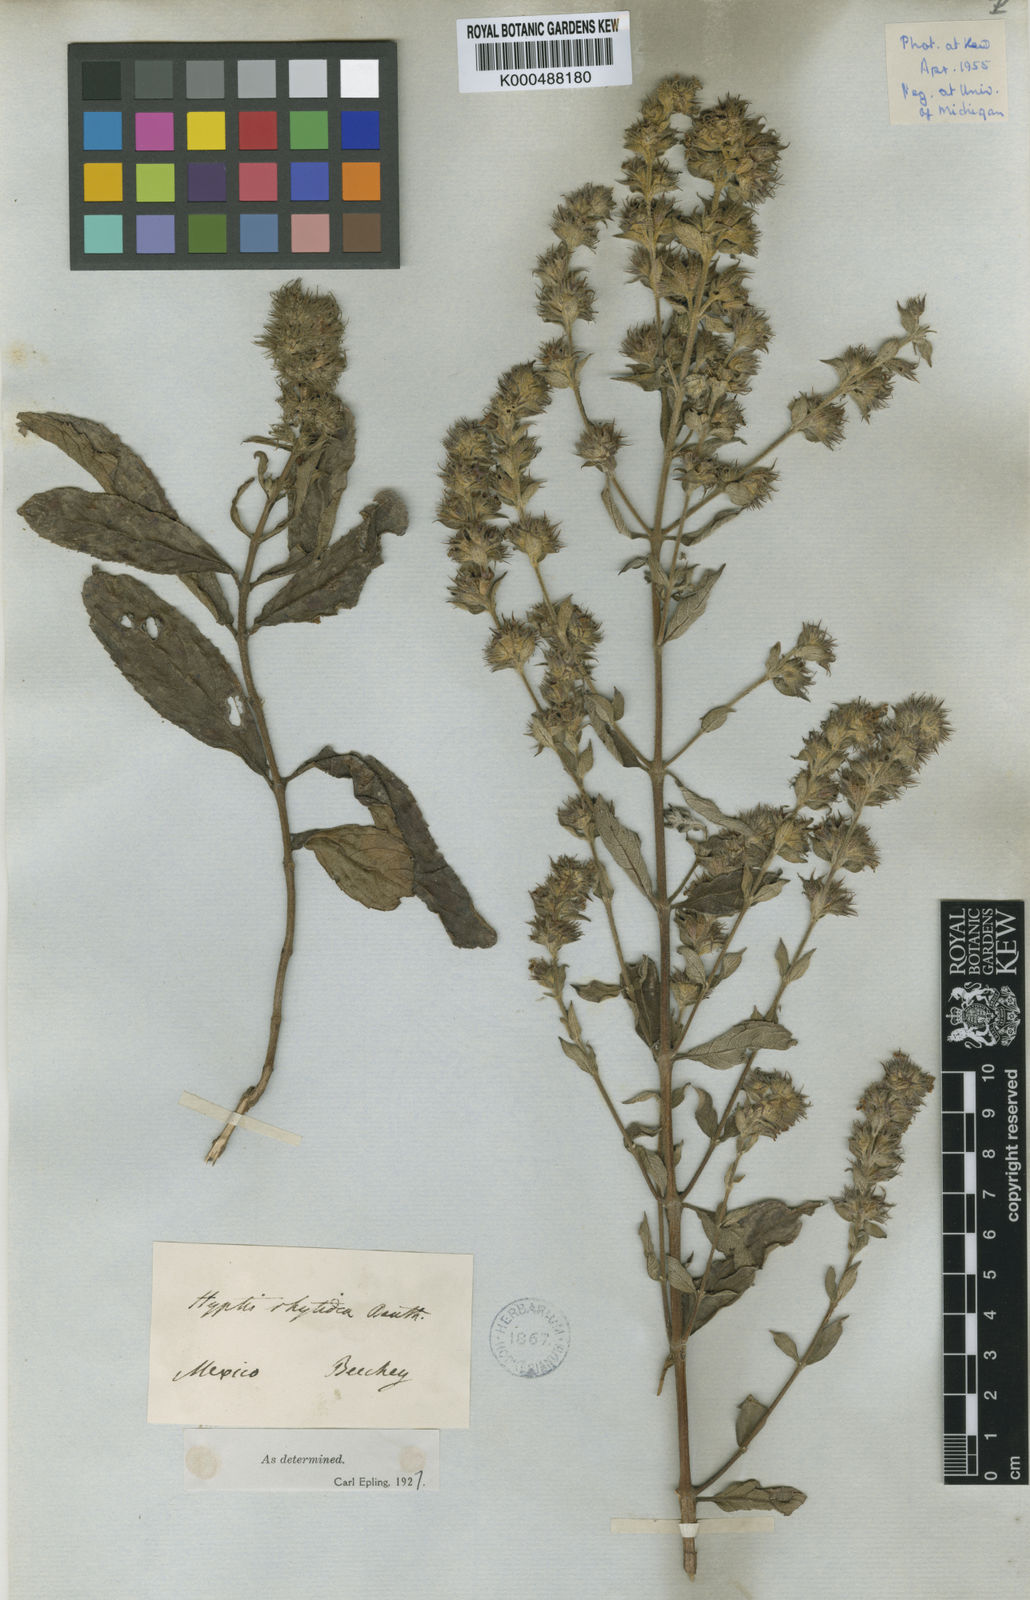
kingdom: Plantae
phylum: Tracheophyta
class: Magnoliopsida
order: Lamiales
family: Lamiaceae
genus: Hyptis
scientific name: Hyptis rhytidea
